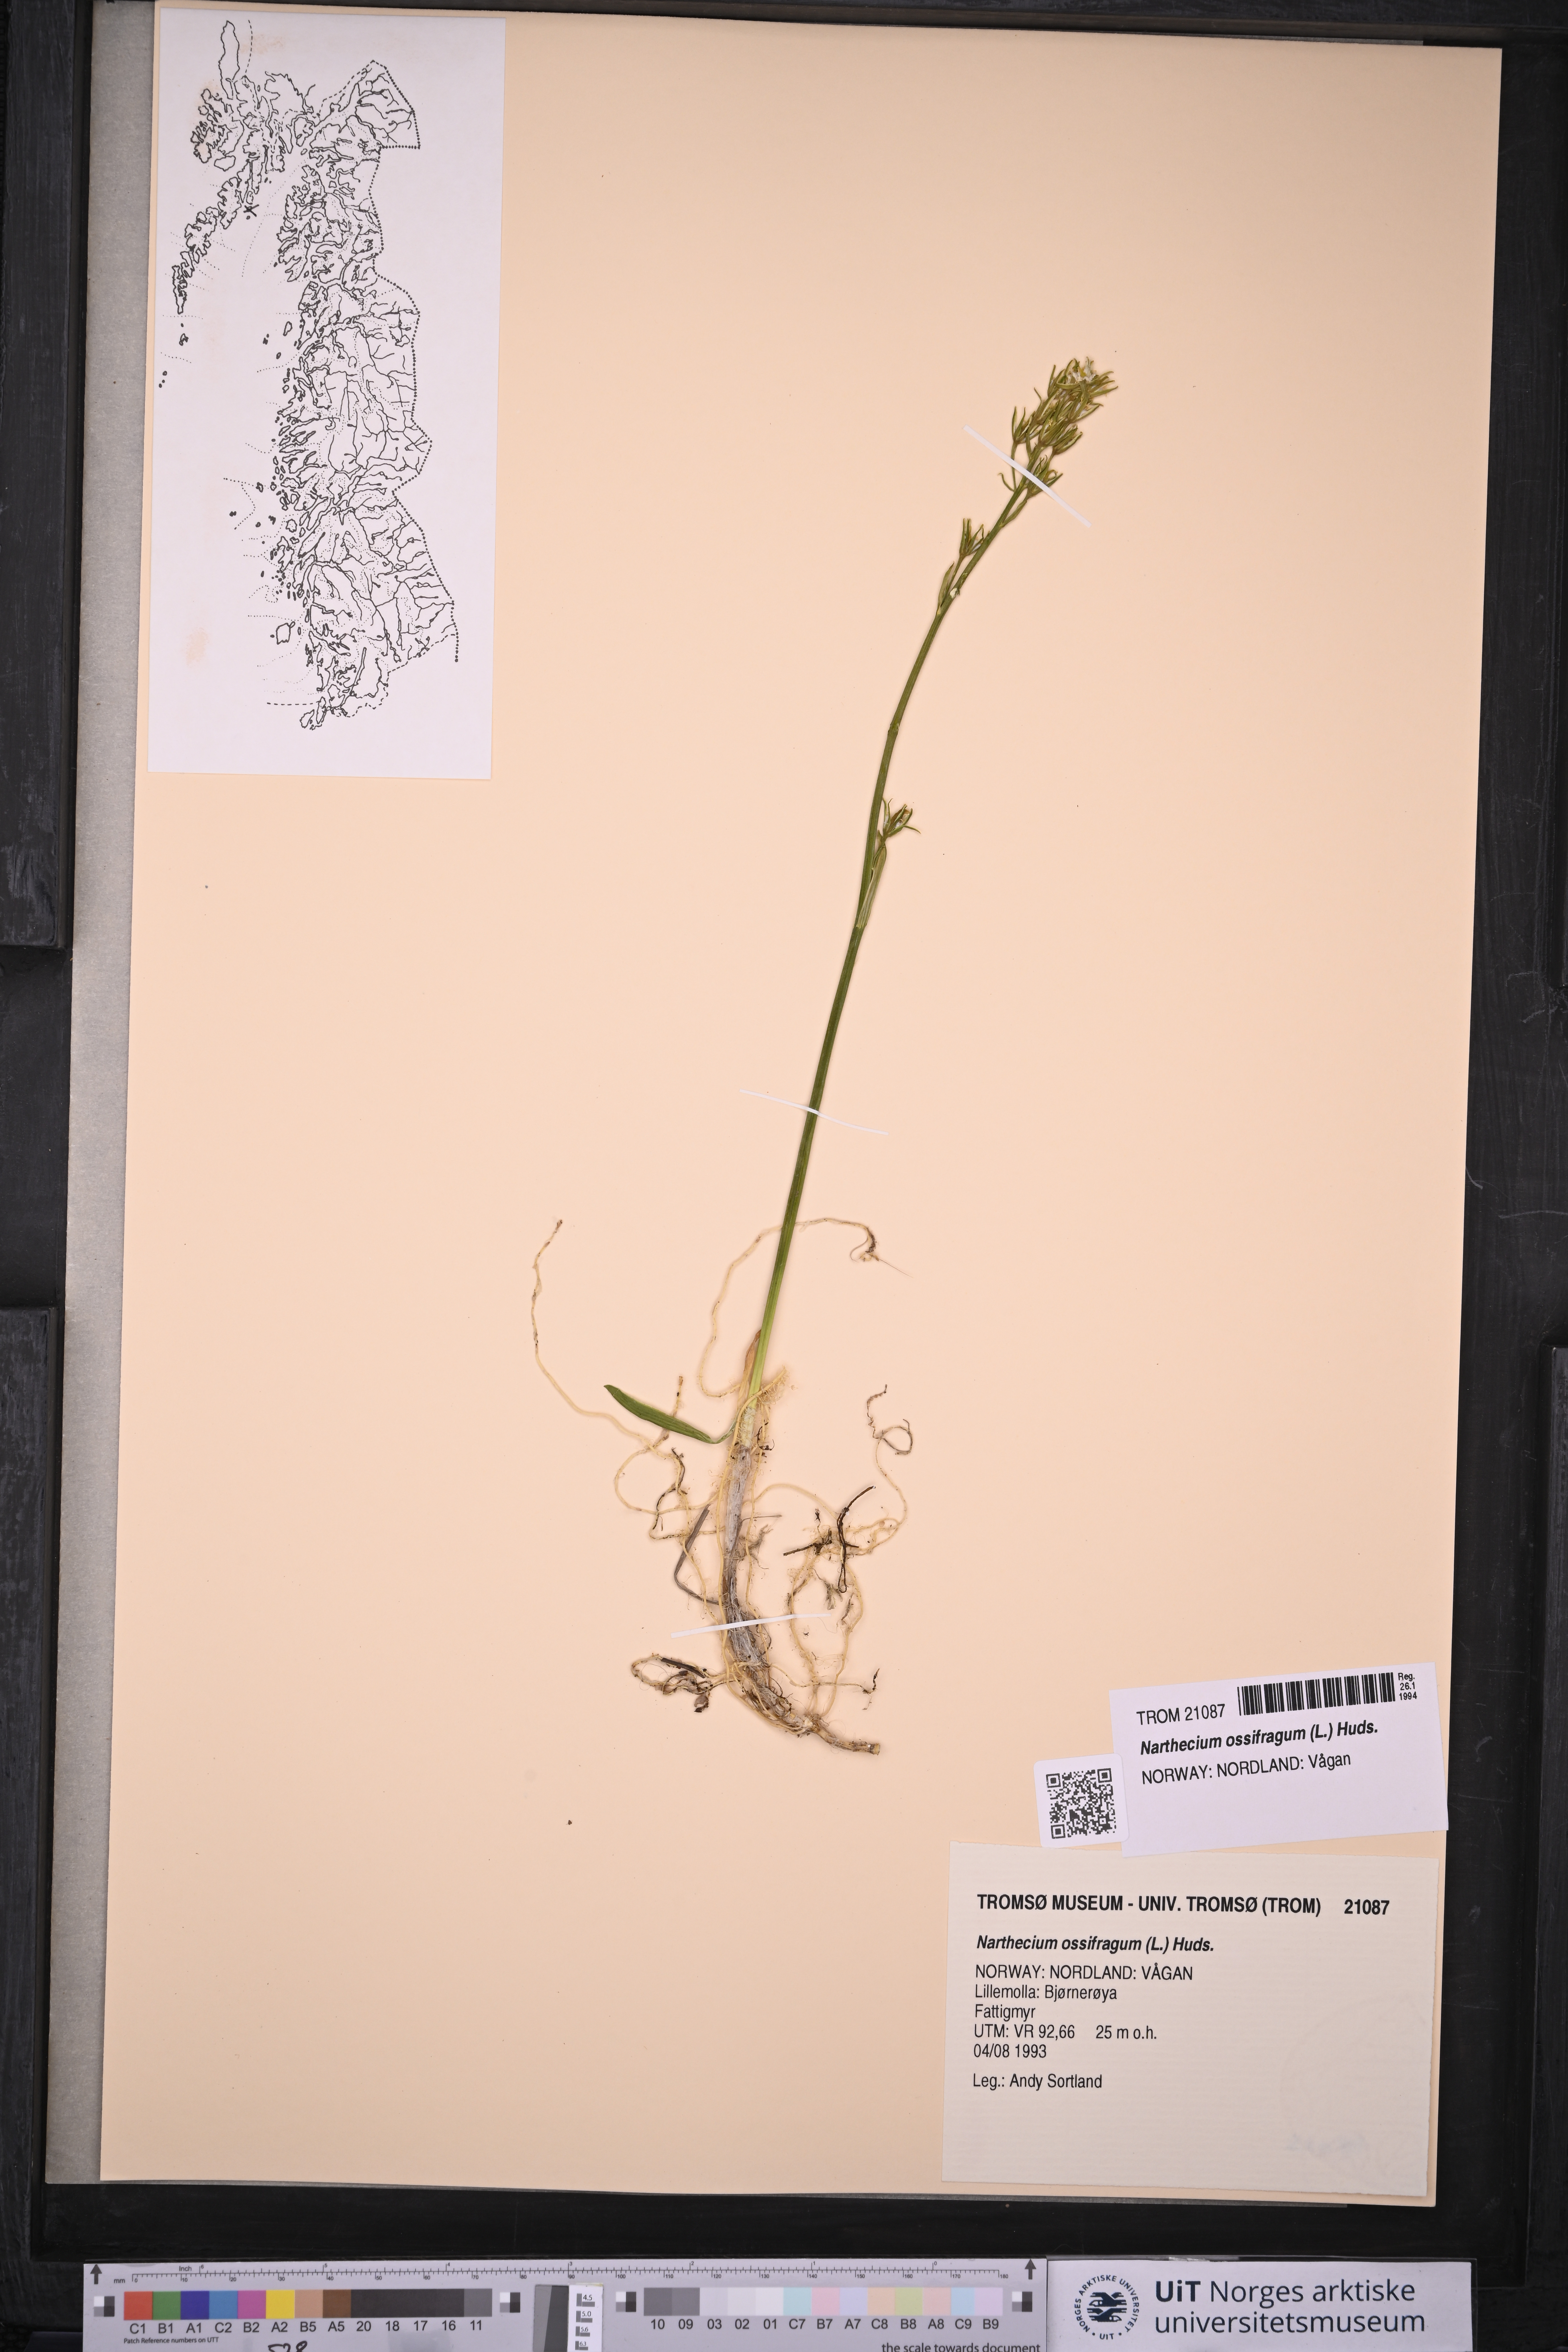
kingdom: Plantae
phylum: Tracheophyta
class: Liliopsida
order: Dioscoreales
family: Nartheciaceae
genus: Narthecium
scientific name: Narthecium ossifragum
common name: Bog asphodel
